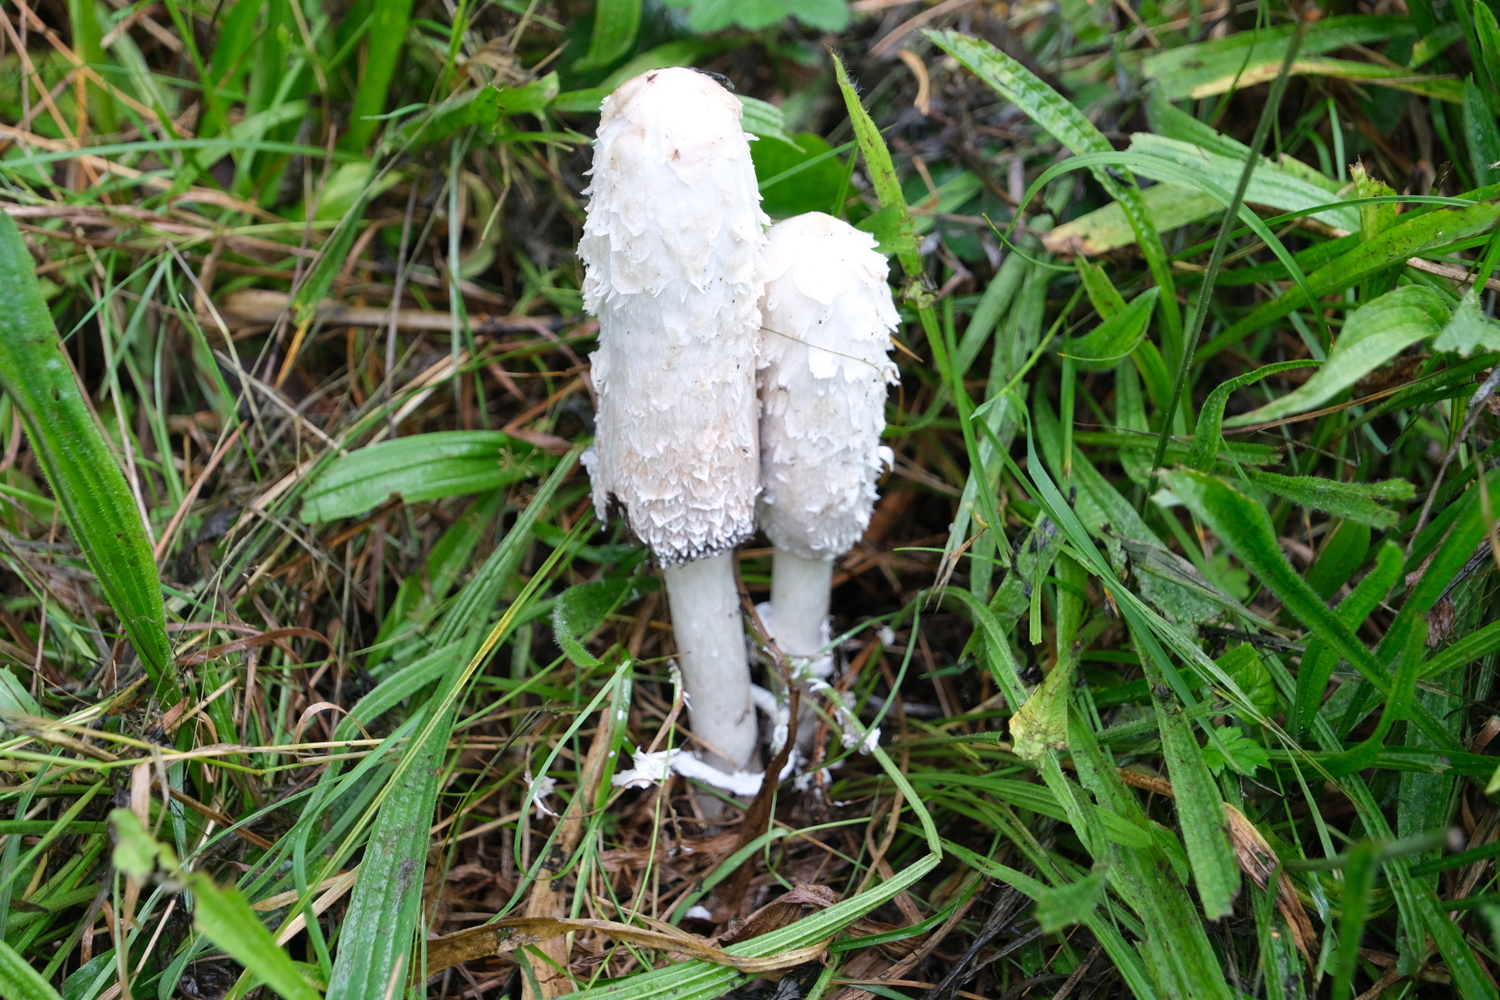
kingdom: Fungi
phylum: Basidiomycota
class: Agaricomycetes
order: Agaricales
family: Agaricaceae
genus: Coprinus
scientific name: Coprinus comatus
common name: stor parykhat
